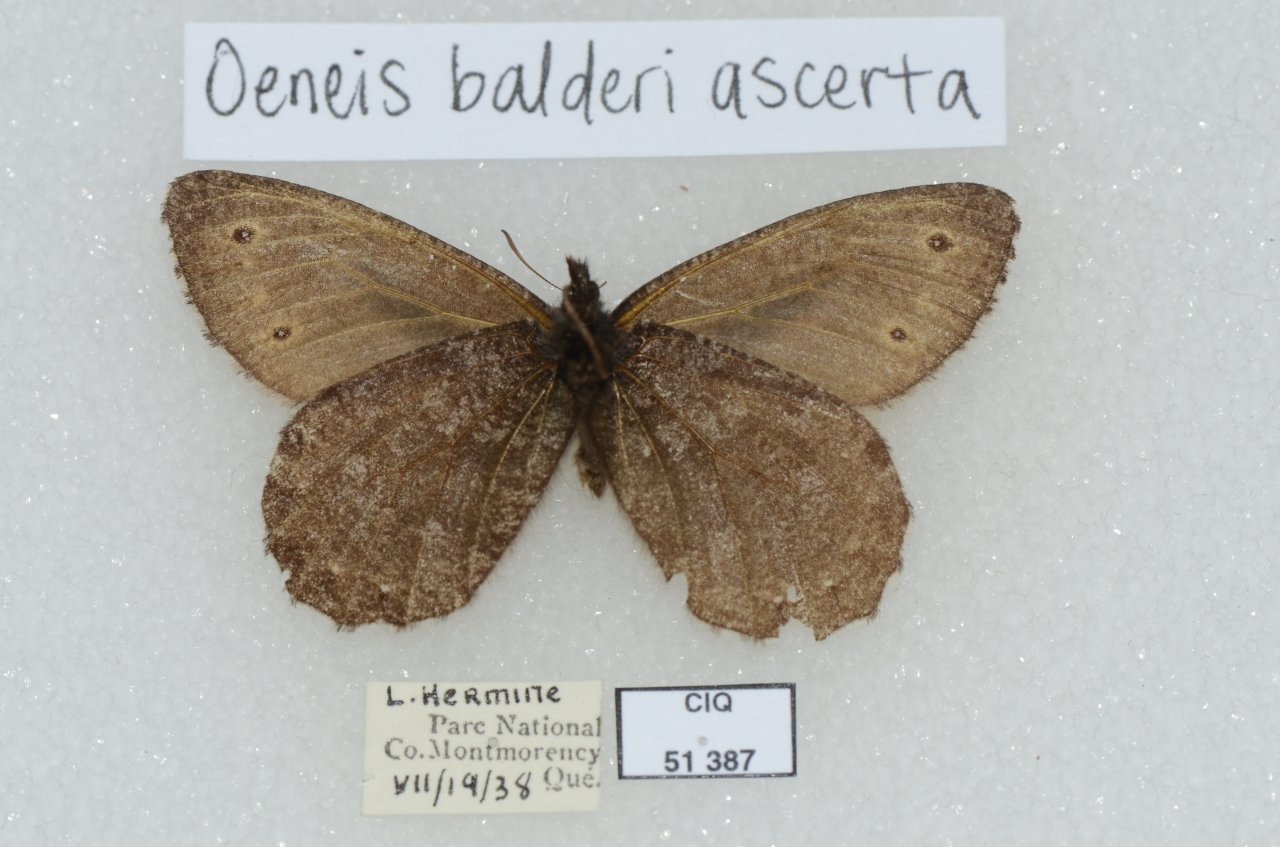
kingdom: Animalia
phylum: Arthropoda
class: Insecta
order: Lepidoptera
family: Nymphalidae
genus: Oeneis
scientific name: Oeneis jutta
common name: Jutta Arctic
